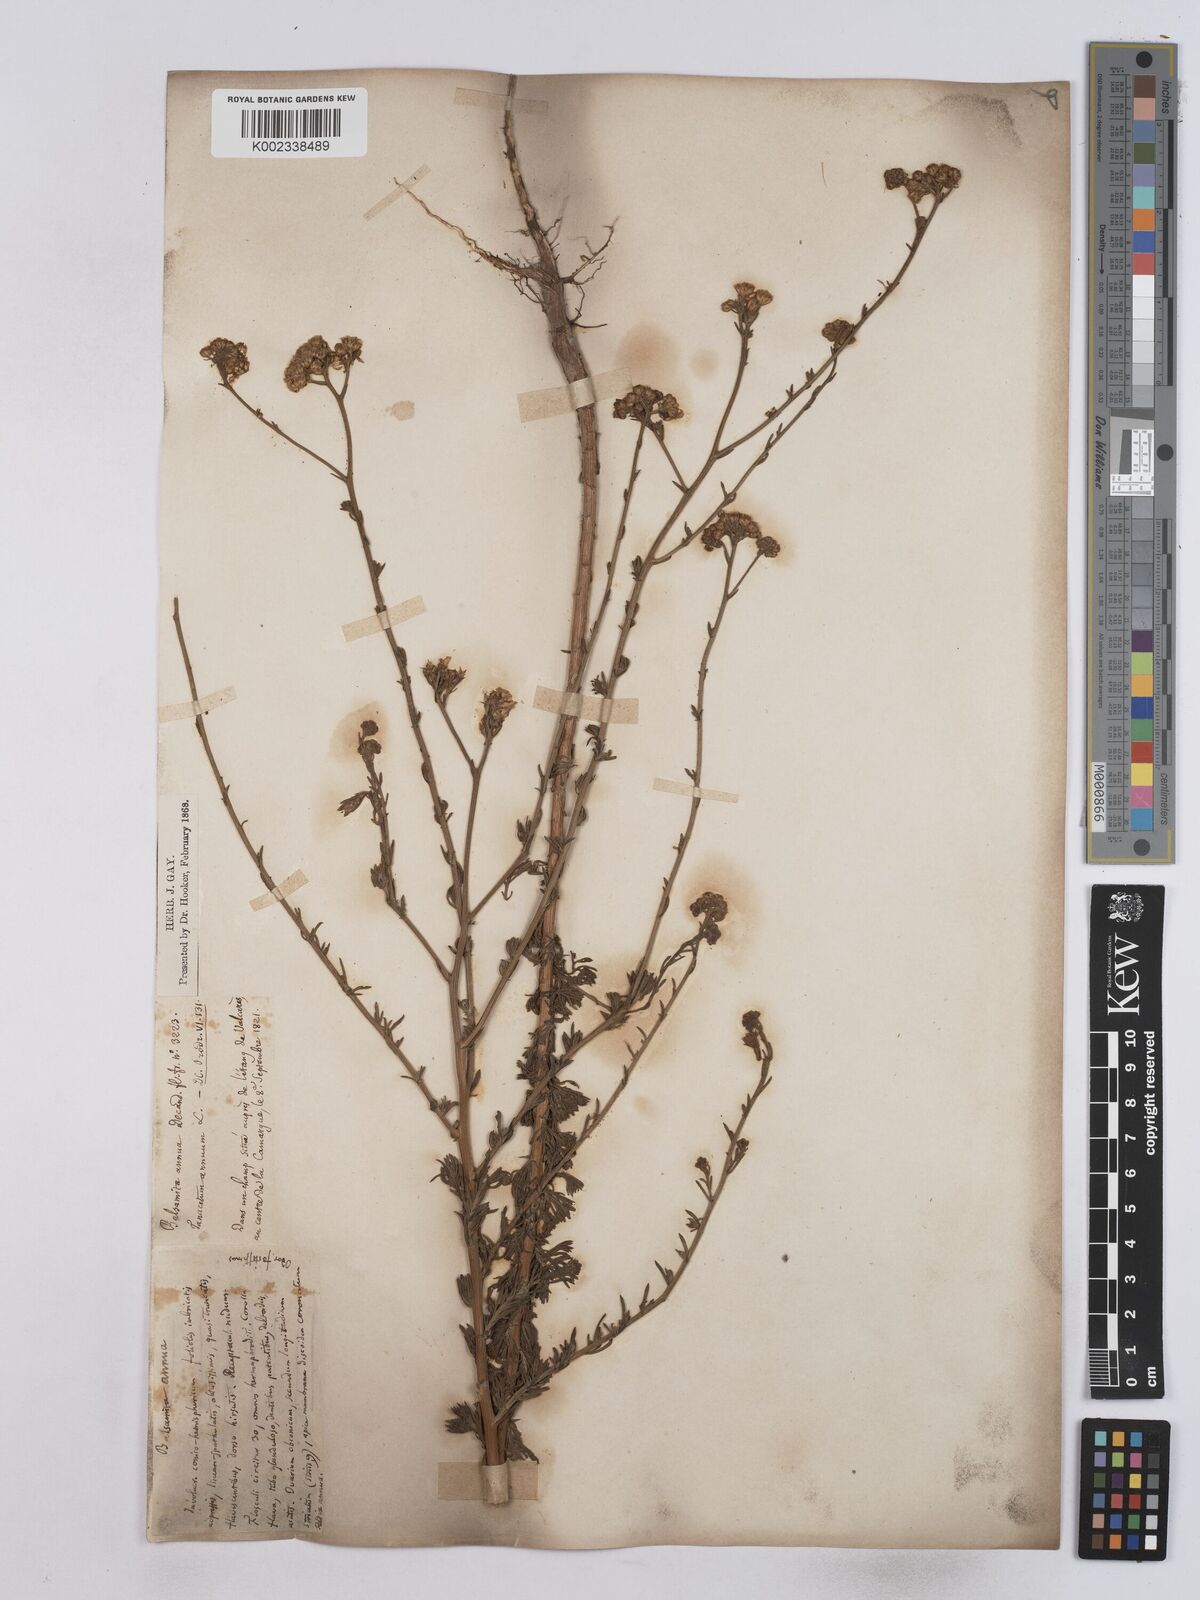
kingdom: Plantae
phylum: Tracheophyta
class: Magnoliopsida
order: Asterales
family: Asteraceae
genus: Vogtia
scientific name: Vogtia annua
